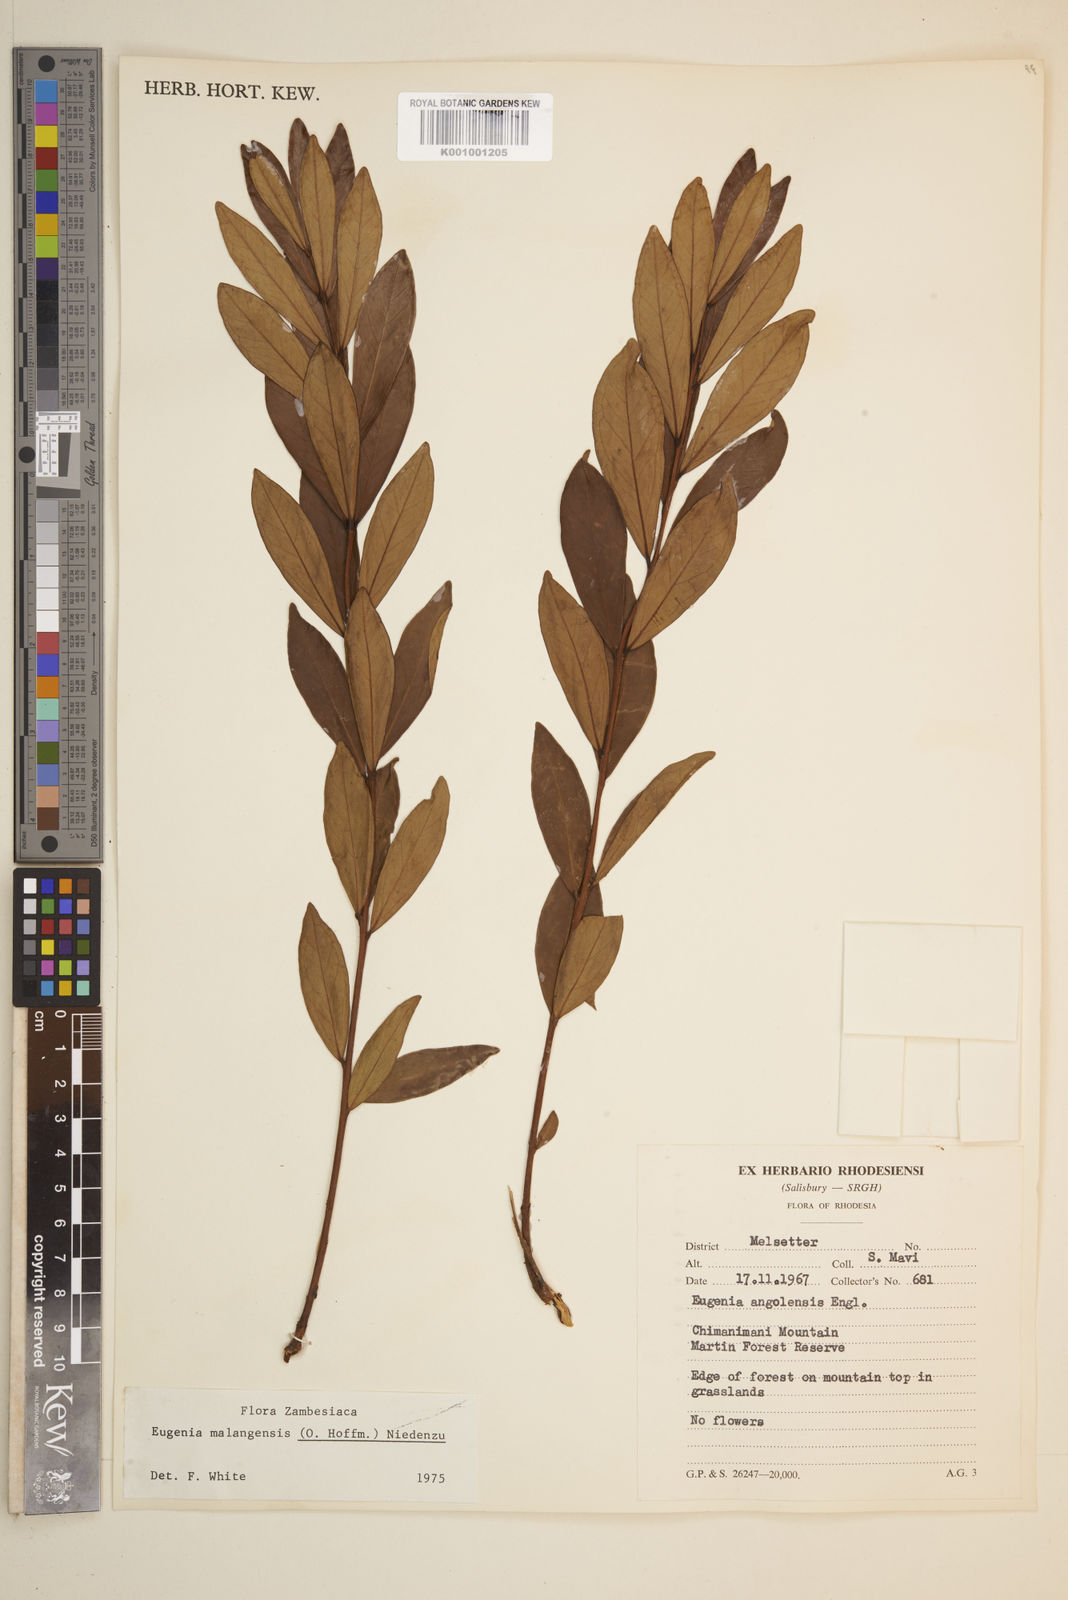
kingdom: Plantae
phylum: Tracheophyta
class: Magnoliopsida
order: Myrtales
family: Myrtaceae
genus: Eugenia
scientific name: Eugenia malangensis
